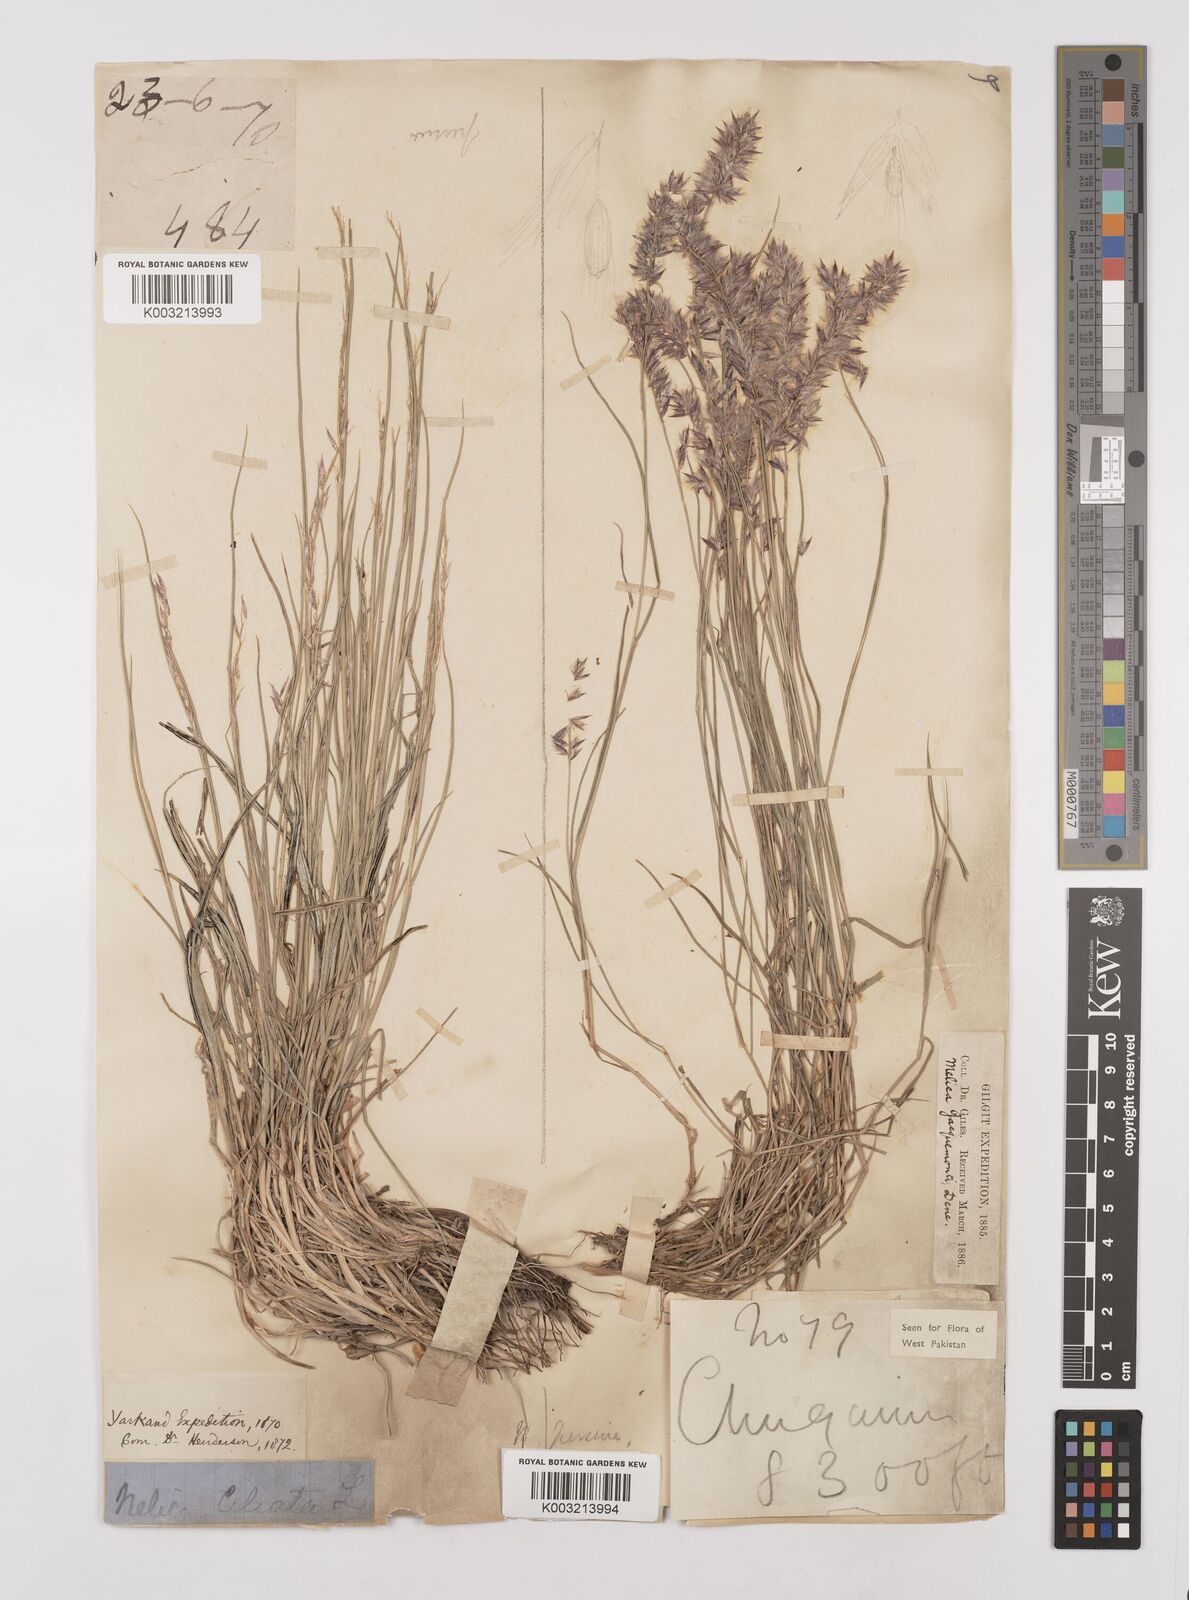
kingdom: Plantae
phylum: Tracheophyta
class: Liliopsida
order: Poales
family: Poaceae
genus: Melica
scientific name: Melica persica
